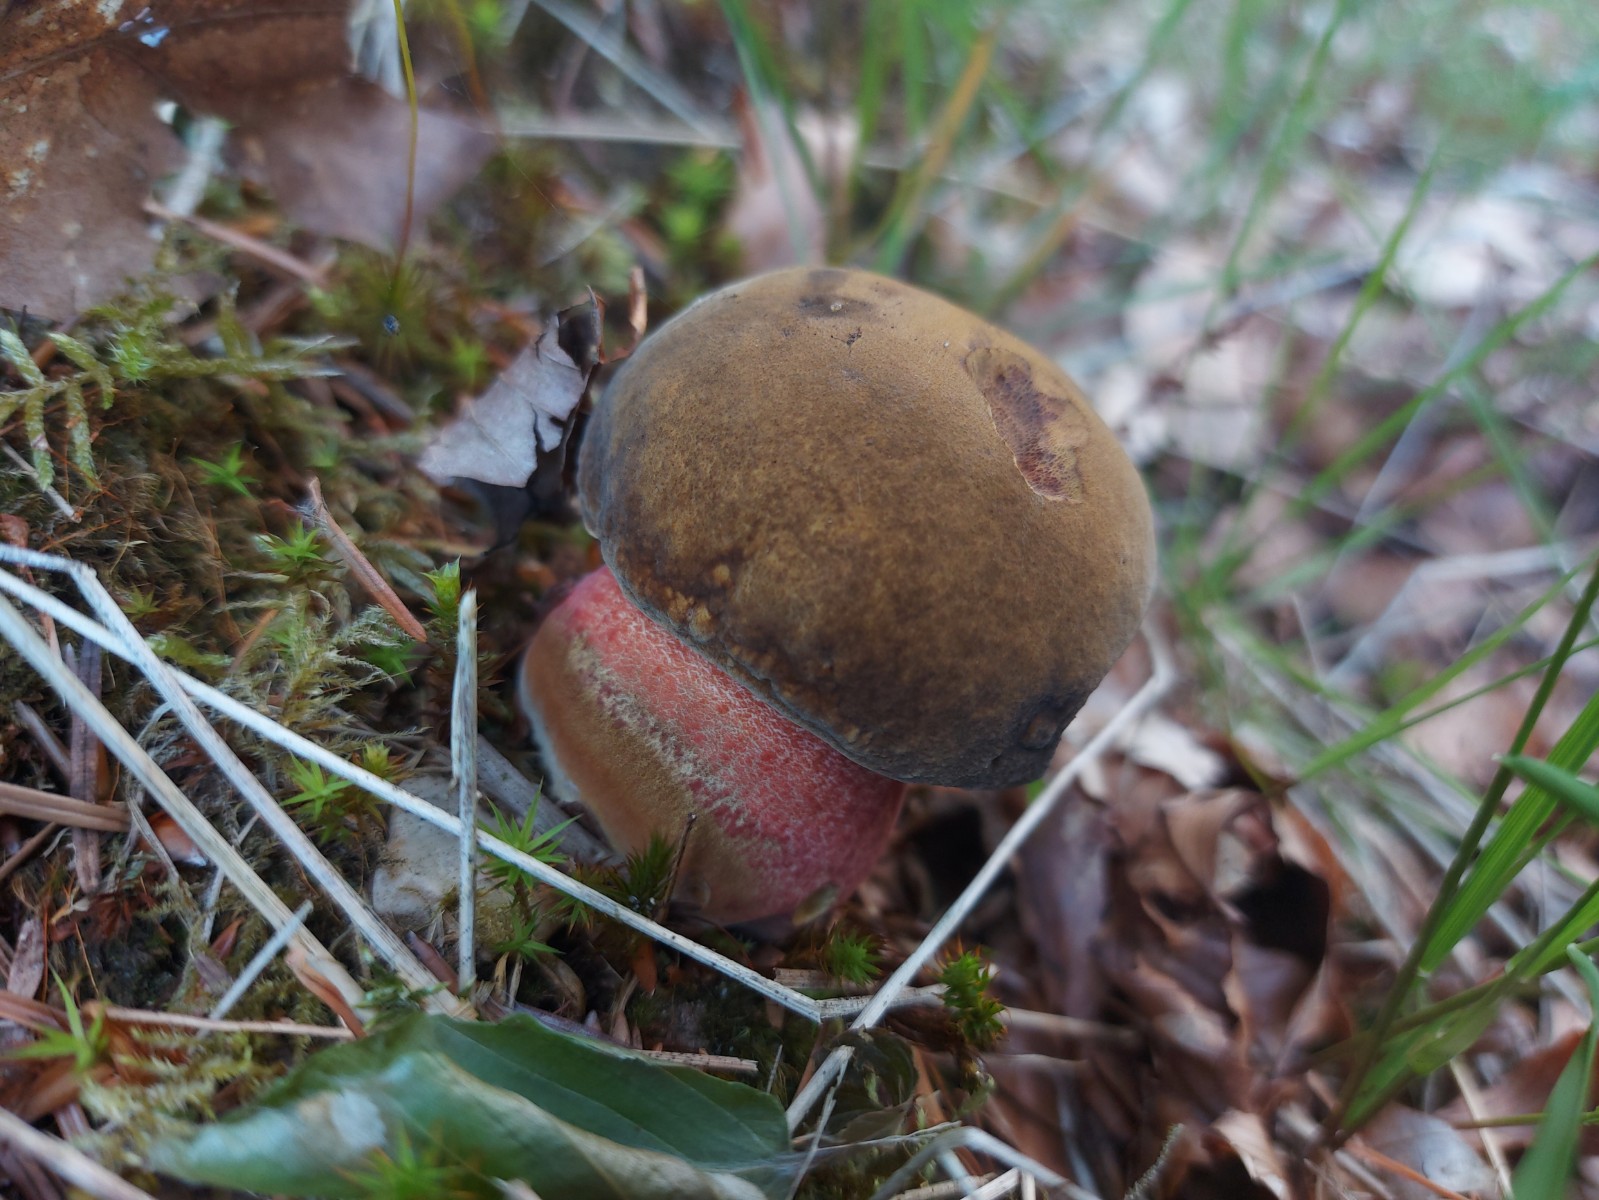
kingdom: Fungi
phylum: Basidiomycota
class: Agaricomycetes
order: Boletales
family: Boletaceae
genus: Neoboletus
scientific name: Neoboletus erythropus
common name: punktstokket indigorørhat
